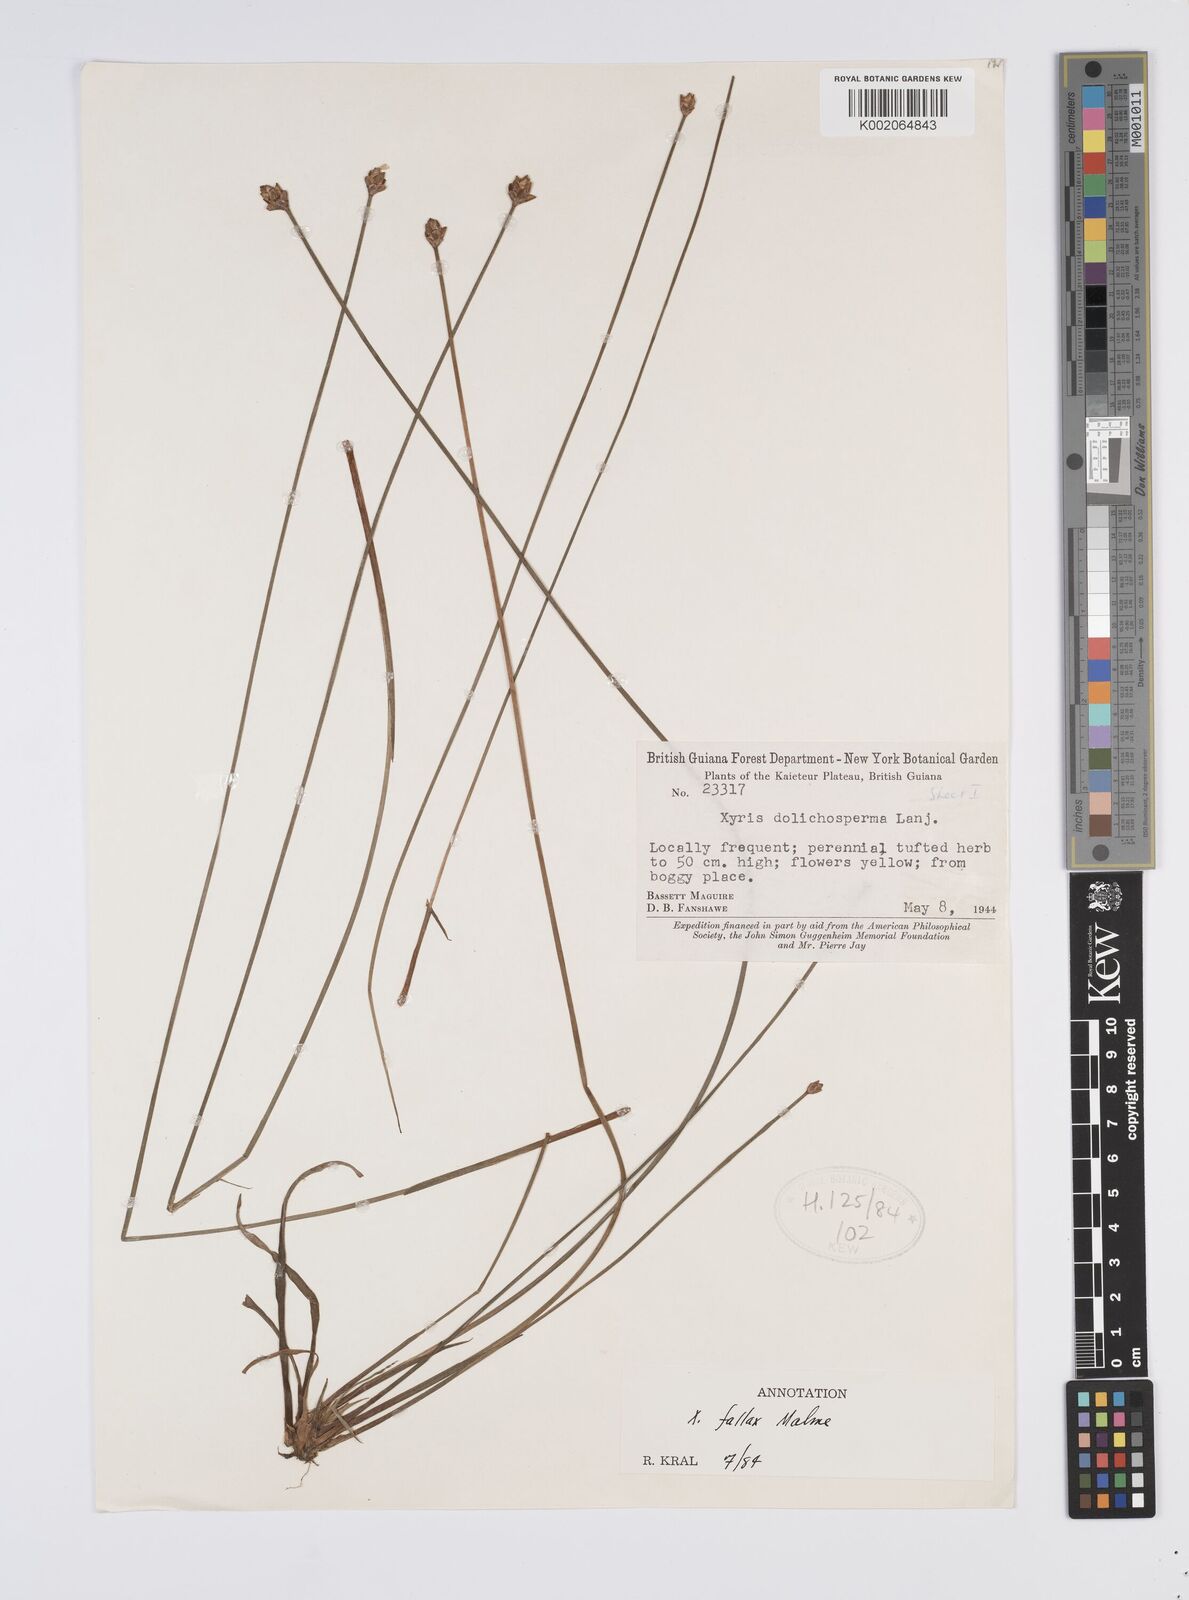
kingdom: Plantae
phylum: Tracheophyta
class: Liliopsida
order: Poales
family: Xyridaceae
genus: Xyris
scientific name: Xyris fallax
